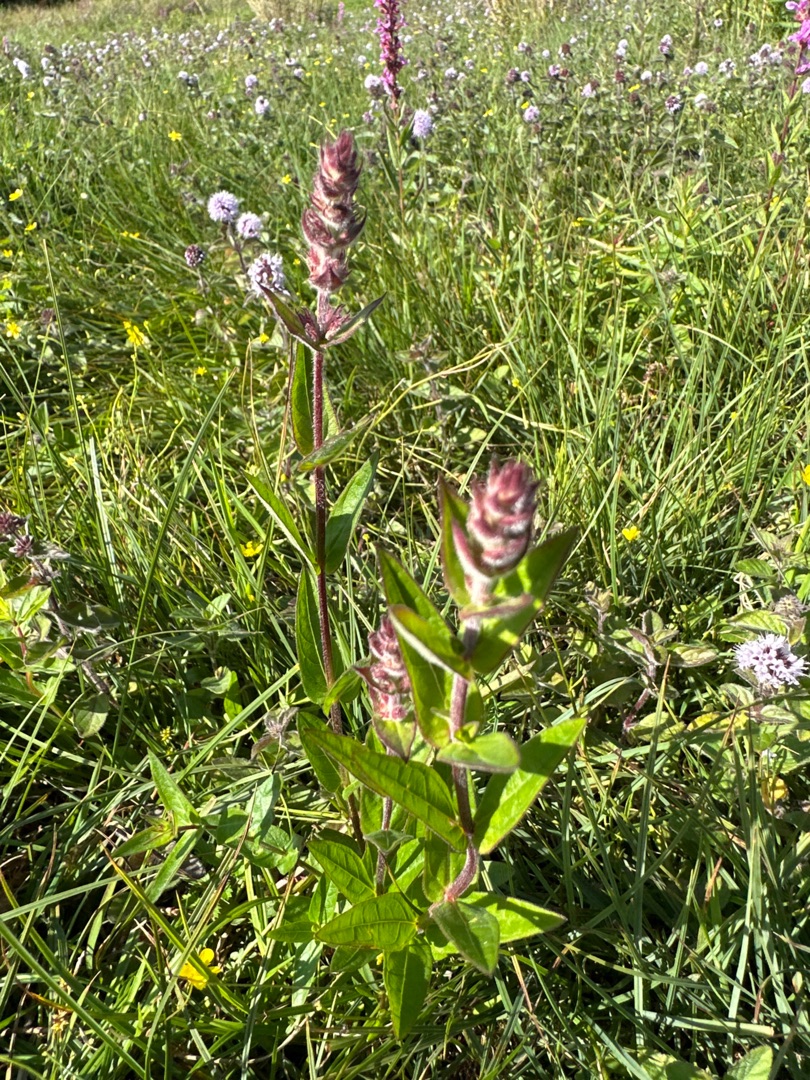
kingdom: Plantae
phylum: Tracheophyta
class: Magnoliopsida
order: Myrtales
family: Lythraceae
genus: Lythrum
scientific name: Lythrum salicaria
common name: Kattehale
